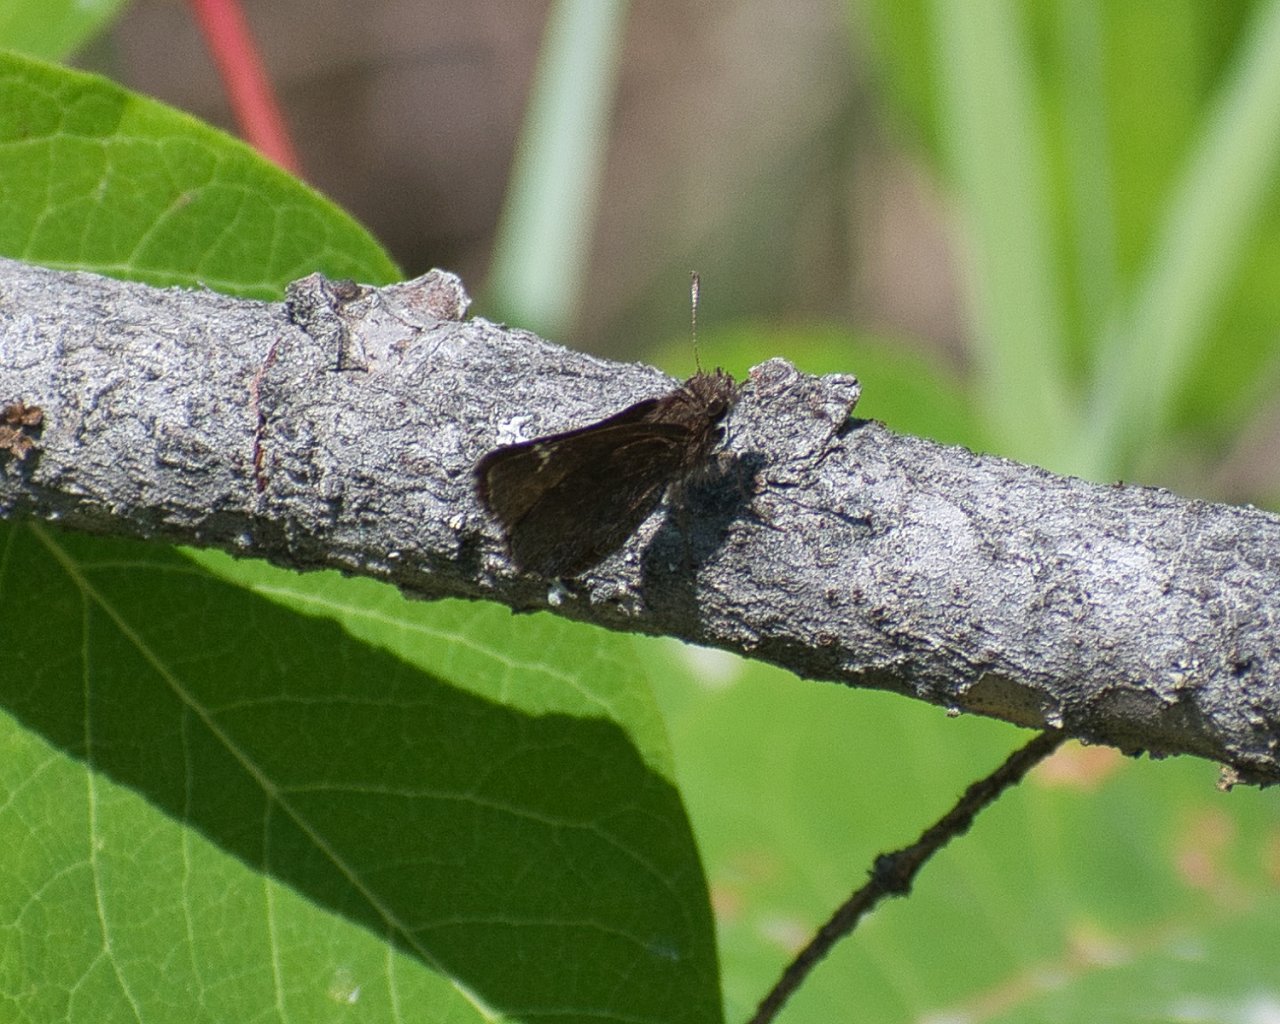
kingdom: Animalia
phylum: Arthropoda
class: Insecta
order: Lepidoptera
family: Hesperiidae
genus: Mastor
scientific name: Mastor vialis
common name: Common Roadside-Skipper
